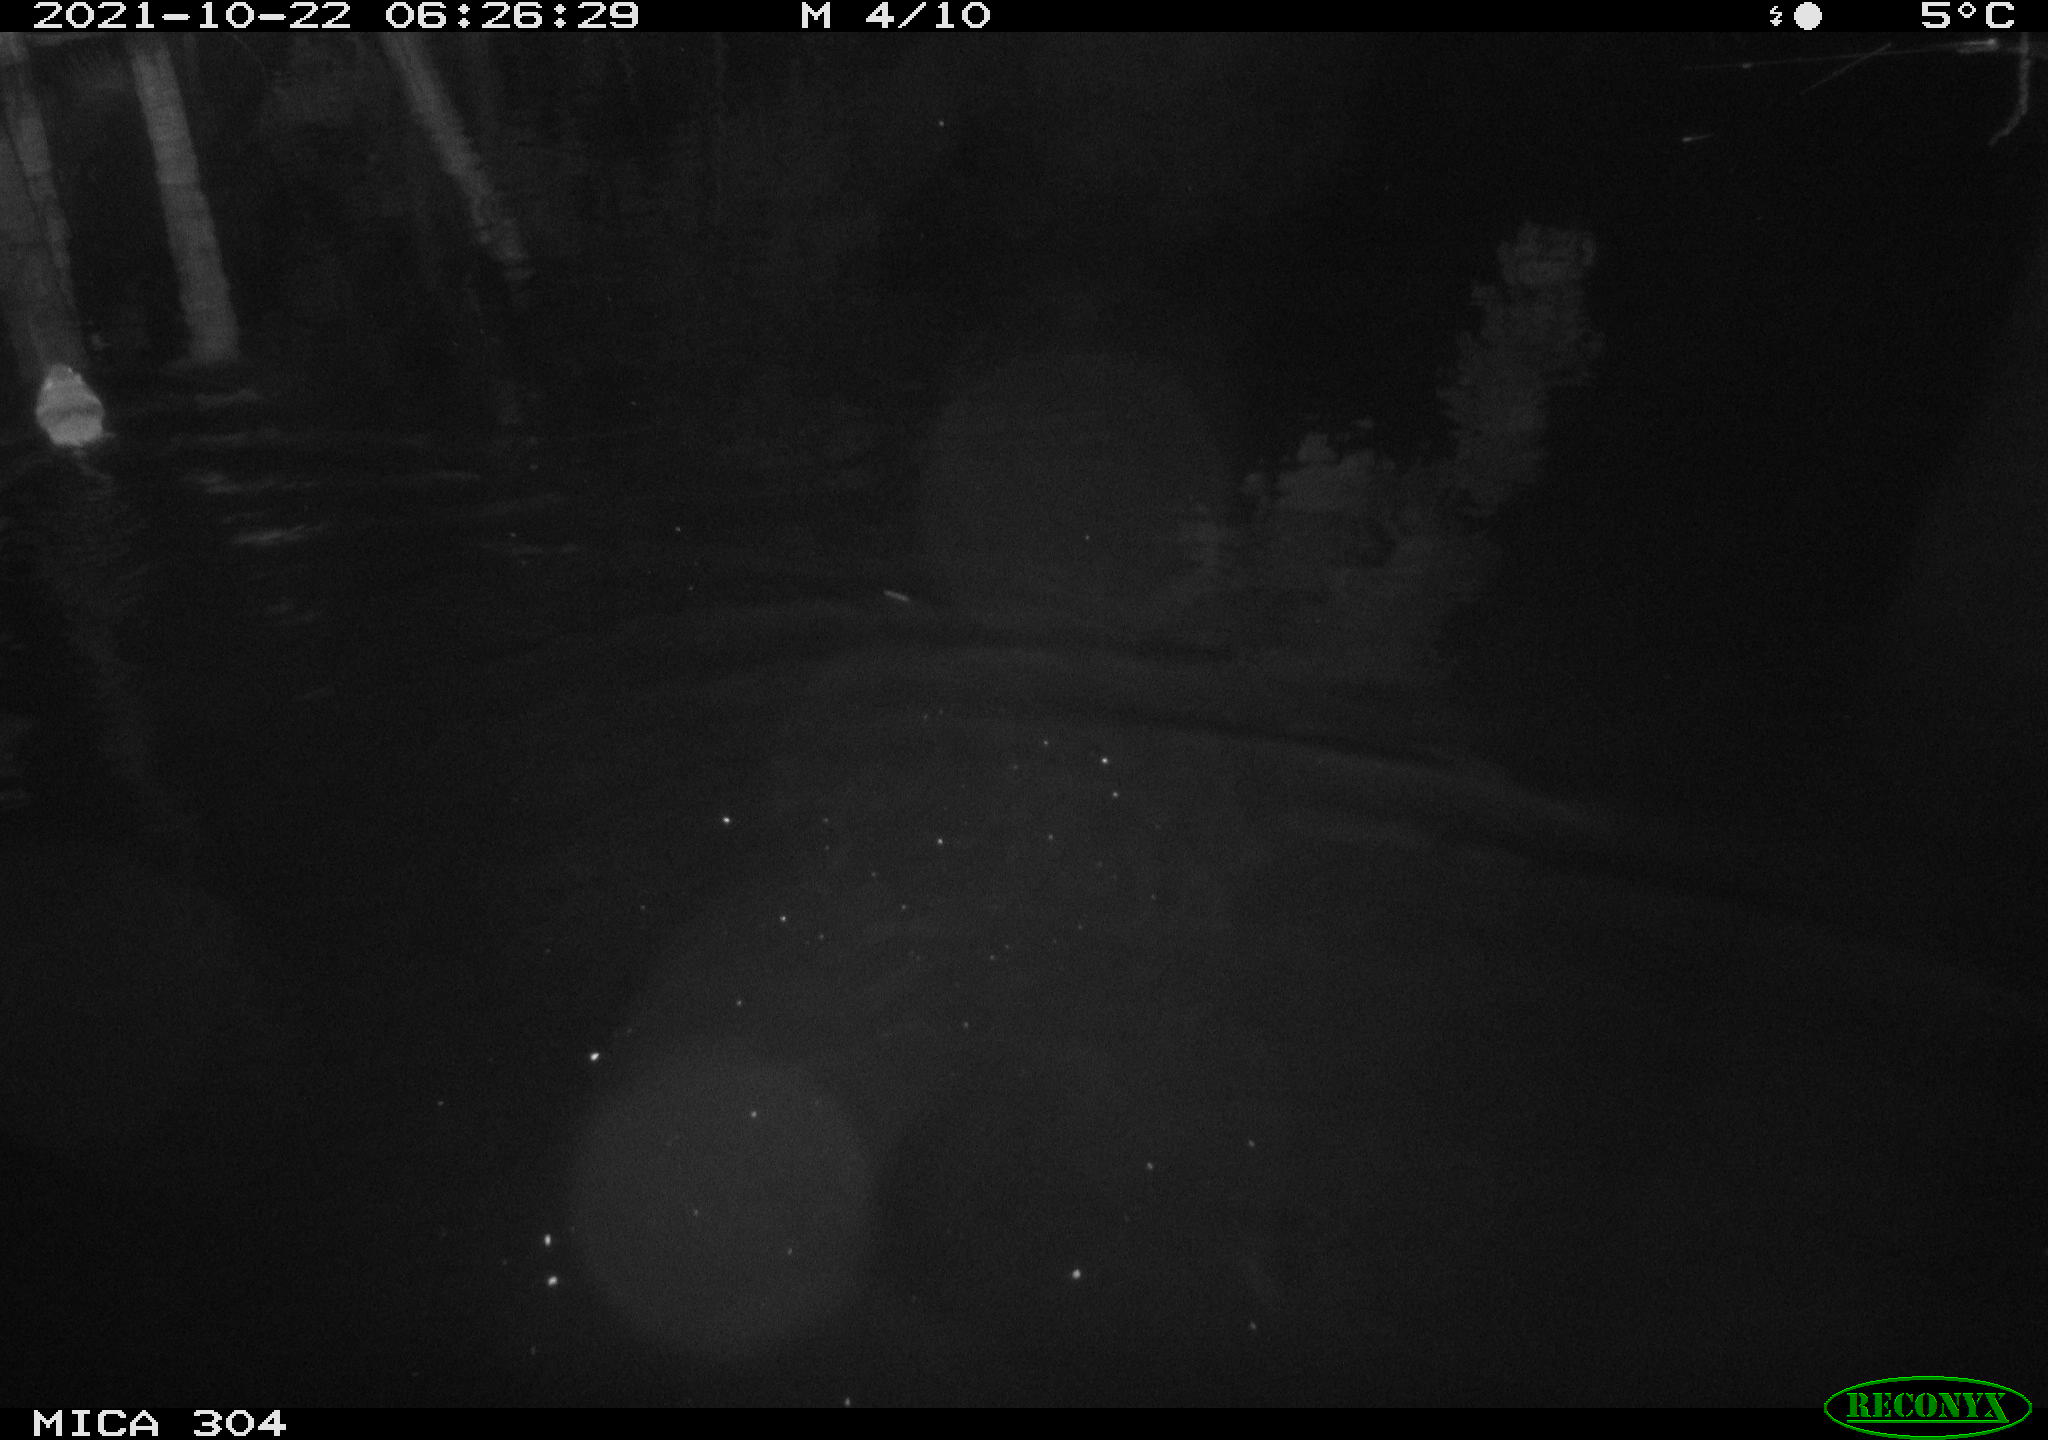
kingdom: Animalia
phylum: Chordata
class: Mammalia
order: Rodentia
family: Cricetidae
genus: Ondatra
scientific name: Ondatra zibethicus
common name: Muskrat
